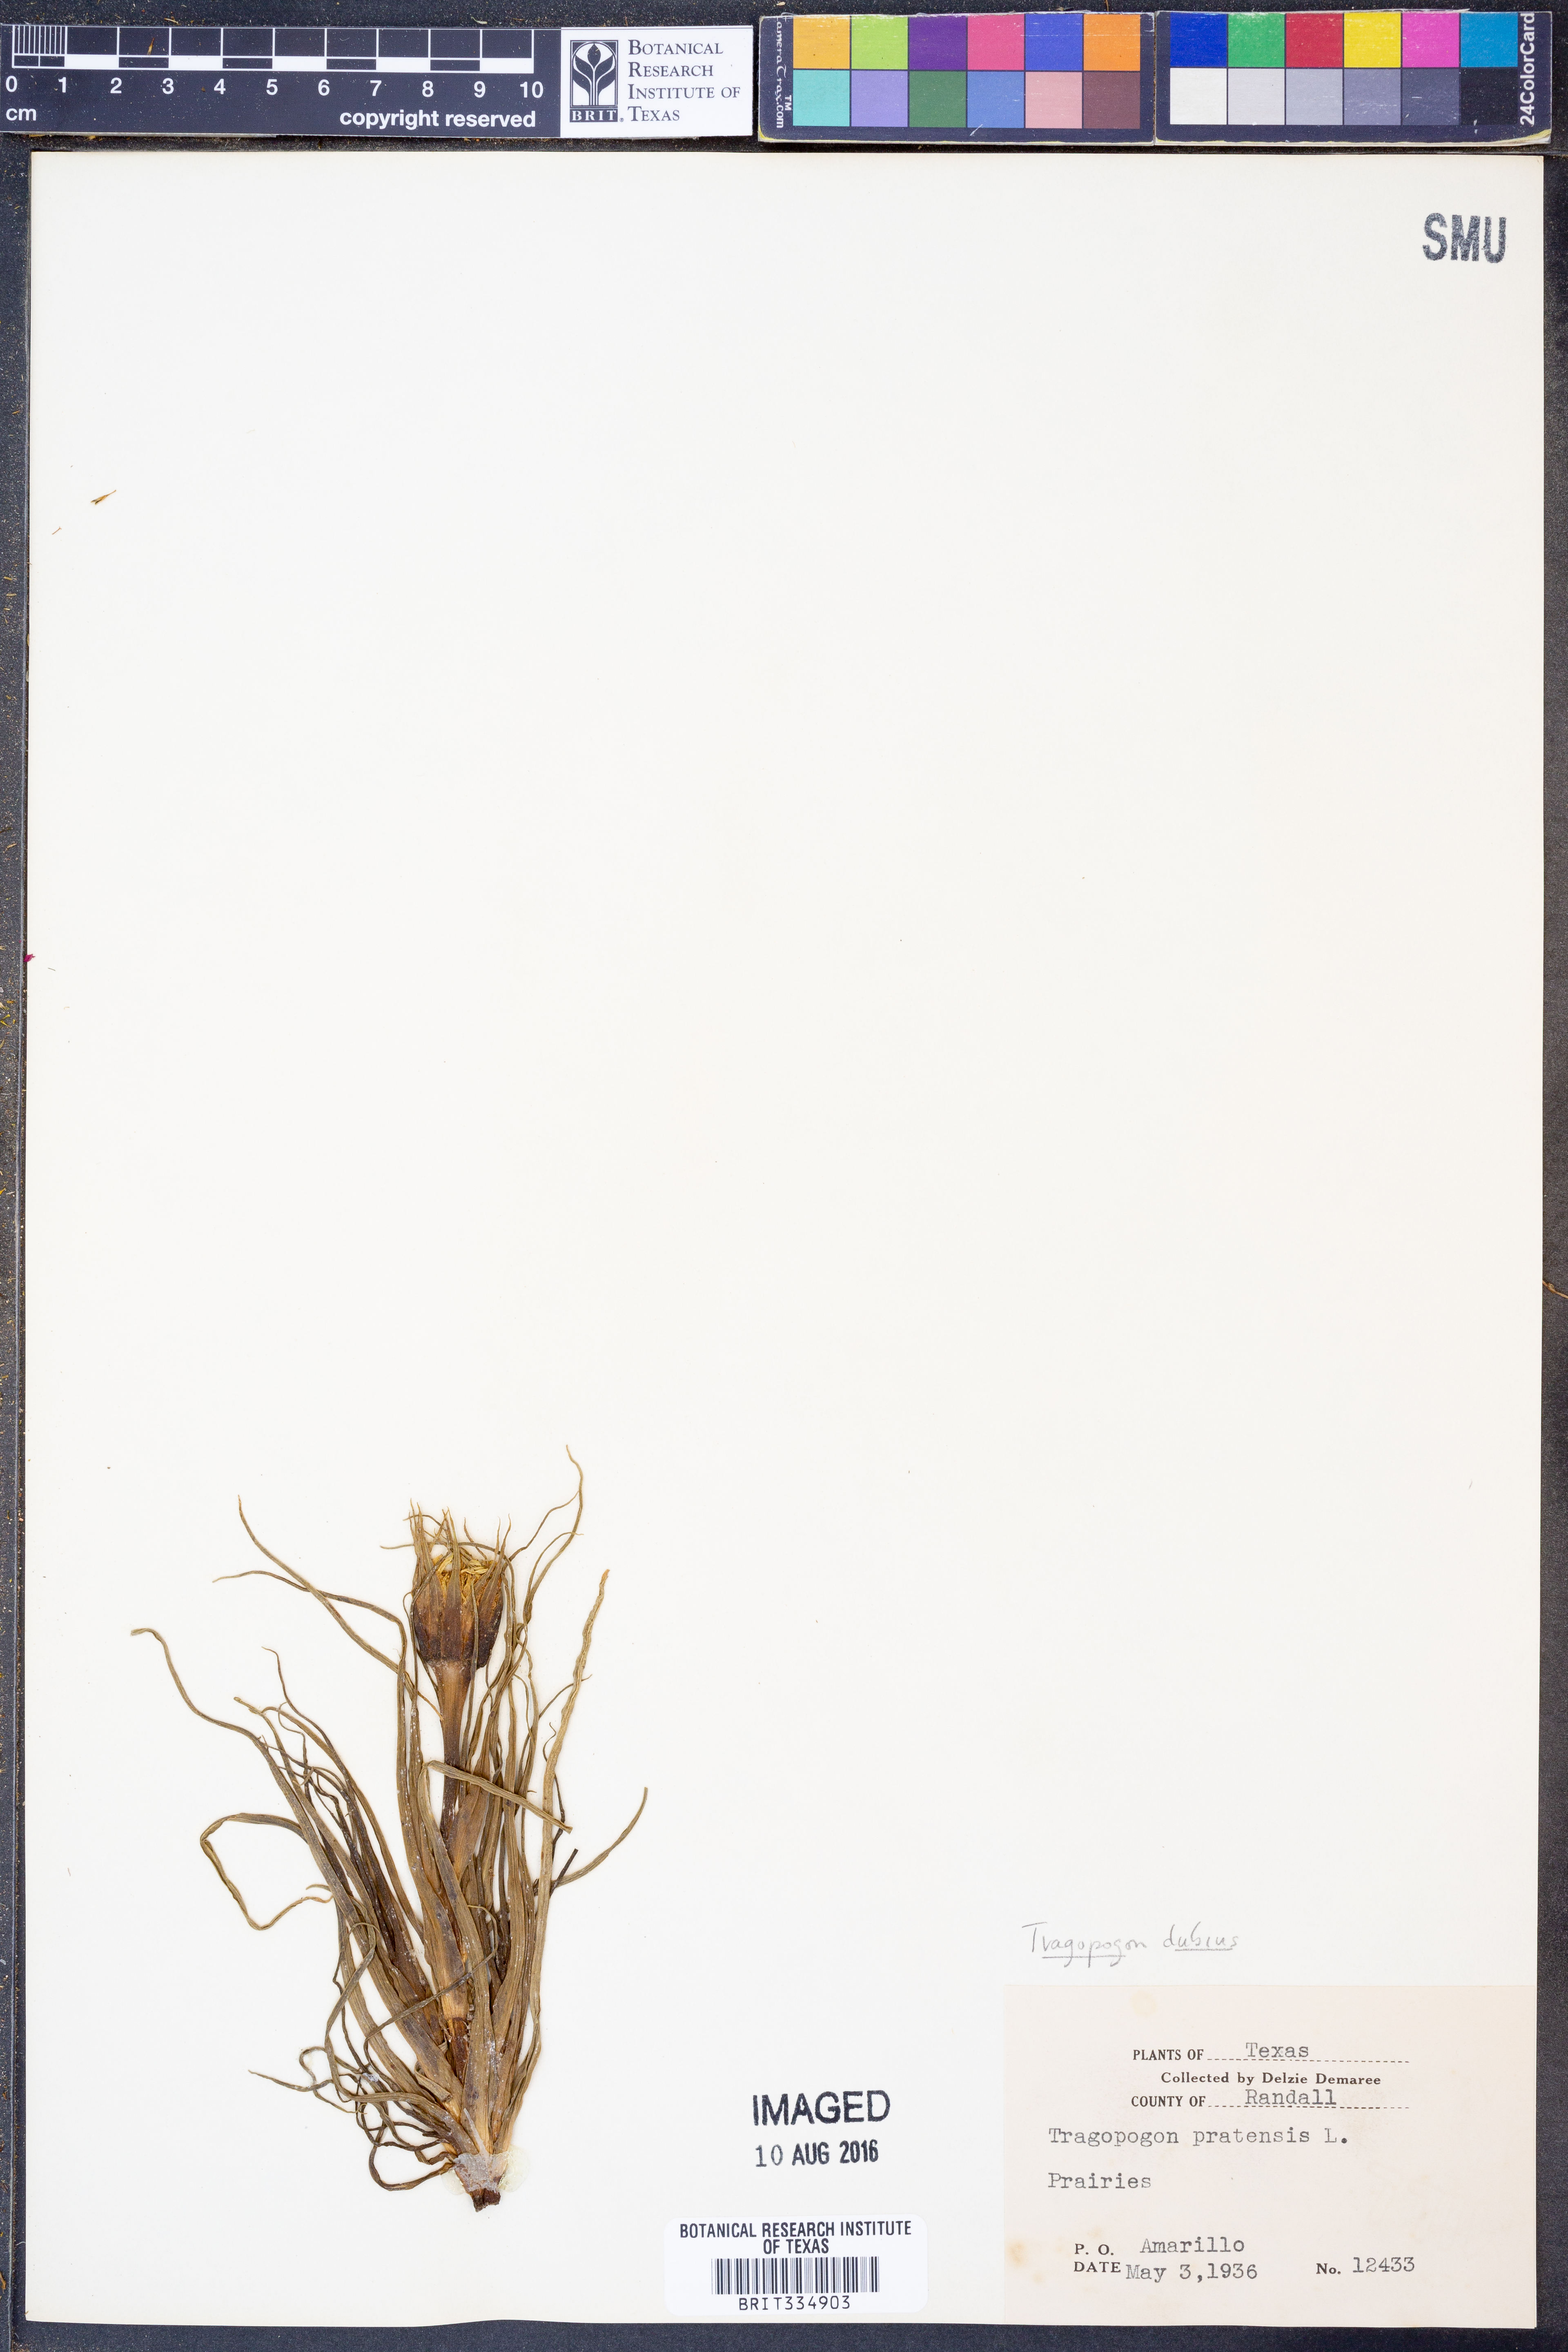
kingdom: Plantae
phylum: Tracheophyta
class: Magnoliopsida
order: Asterales
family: Asteraceae
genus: Tragopogon
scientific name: Tragopogon dubius
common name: Yellow salsify
